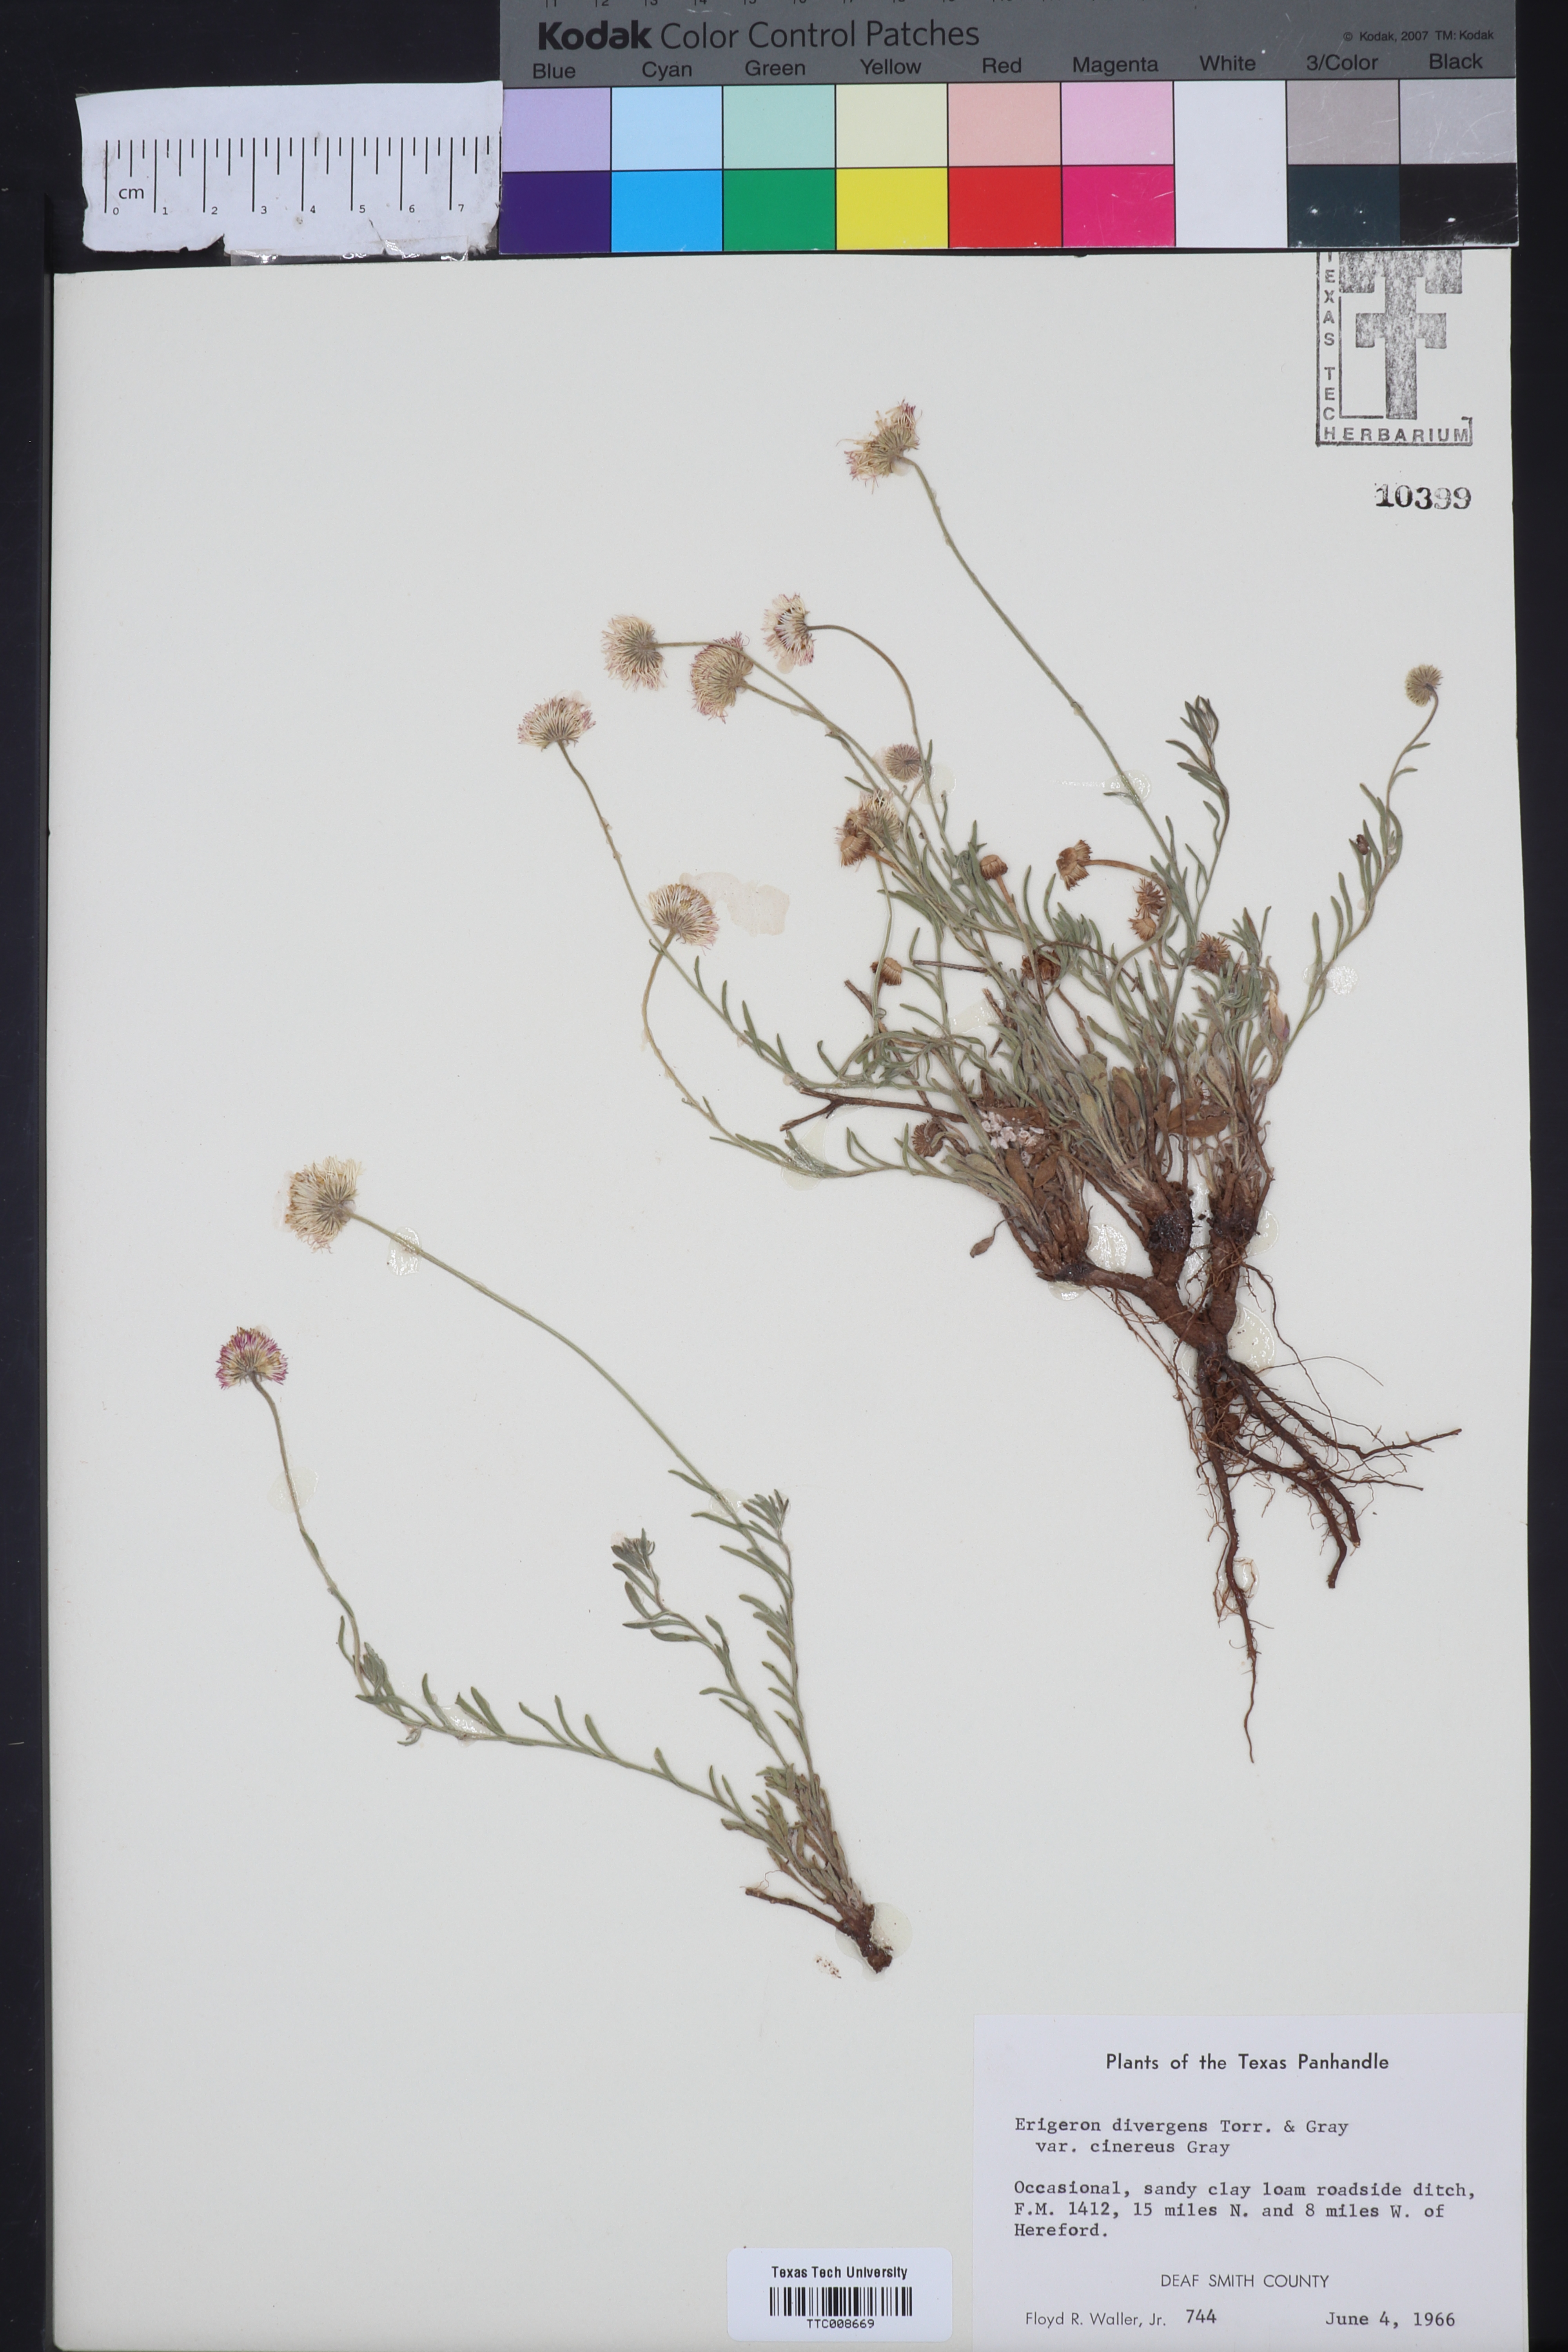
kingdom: Plantae
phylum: Tracheophyta
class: Magnoliopsida
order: Asterales
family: Asteraceae
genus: Erigeron
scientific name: Erigeron tracyi
